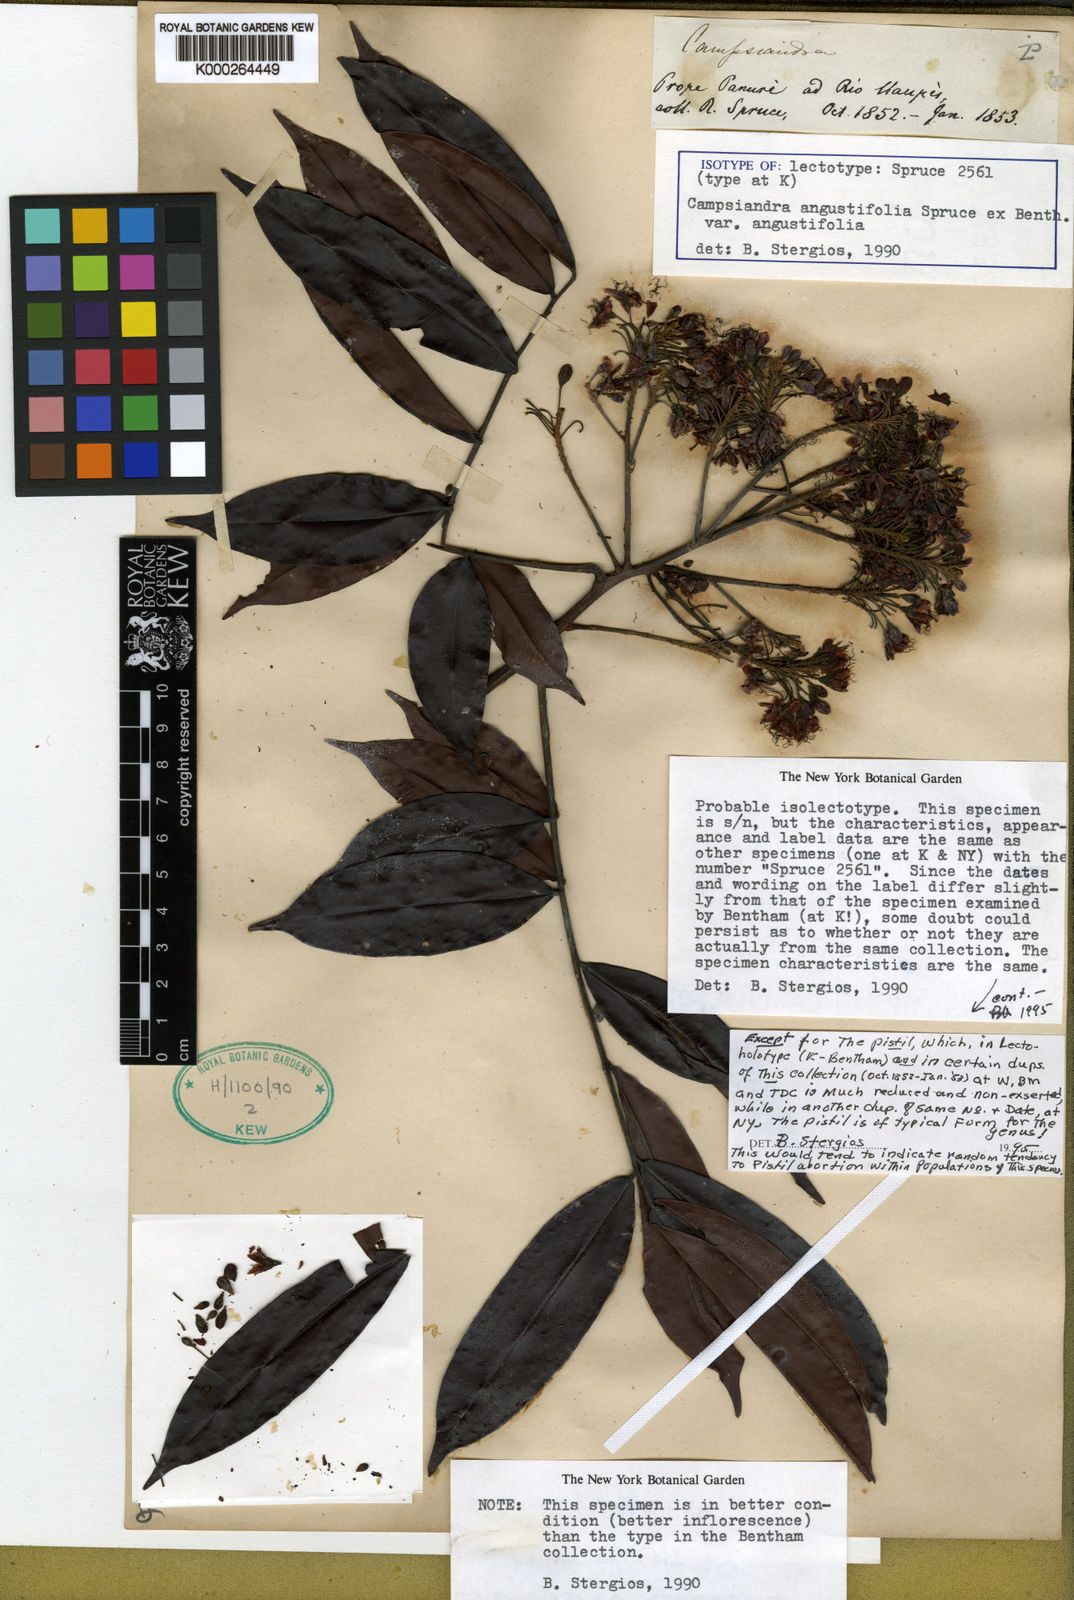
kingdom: Plantae
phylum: Tracheophyta
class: Magnoliopsida
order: Fabales
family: Fabaceae
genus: Campsiandra
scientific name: Campsiandra angustifolia
